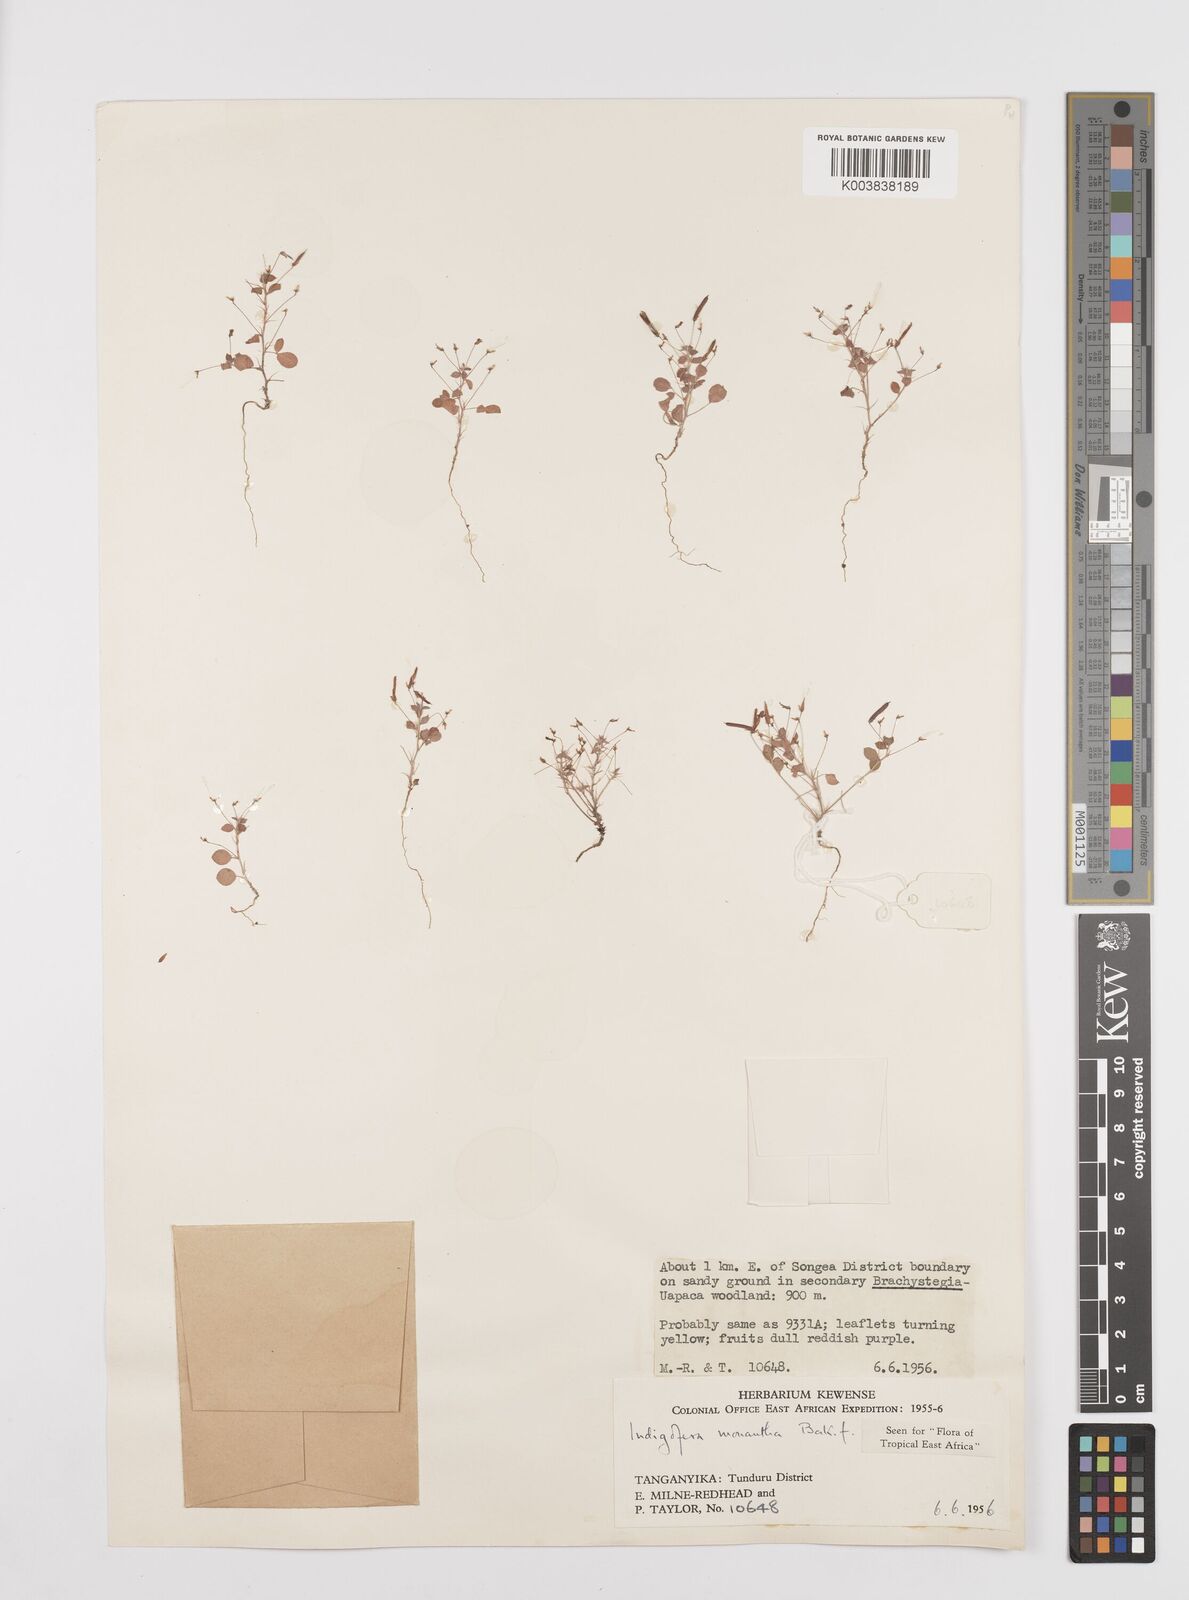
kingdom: Plantae
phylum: Tracheophyta
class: Magnoliopsida
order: Fabales
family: Fabaceae
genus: Indigofera
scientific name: Indigofera monantha
